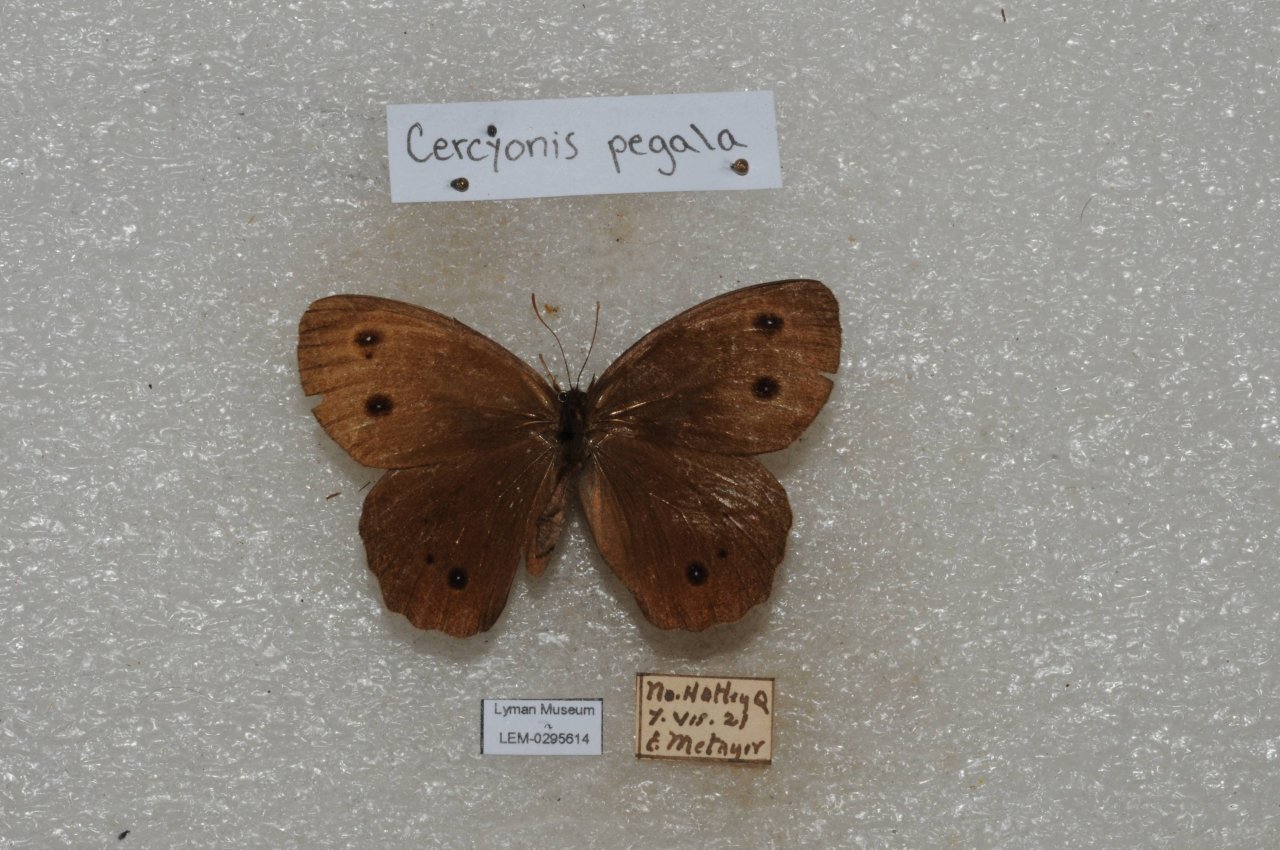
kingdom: Animalia
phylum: Arthropoda
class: Insecta
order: Lepidoptera
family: Nymphalidae
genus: Cercyonis
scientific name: Cercyonis pegala
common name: Common Wood-Nymph
